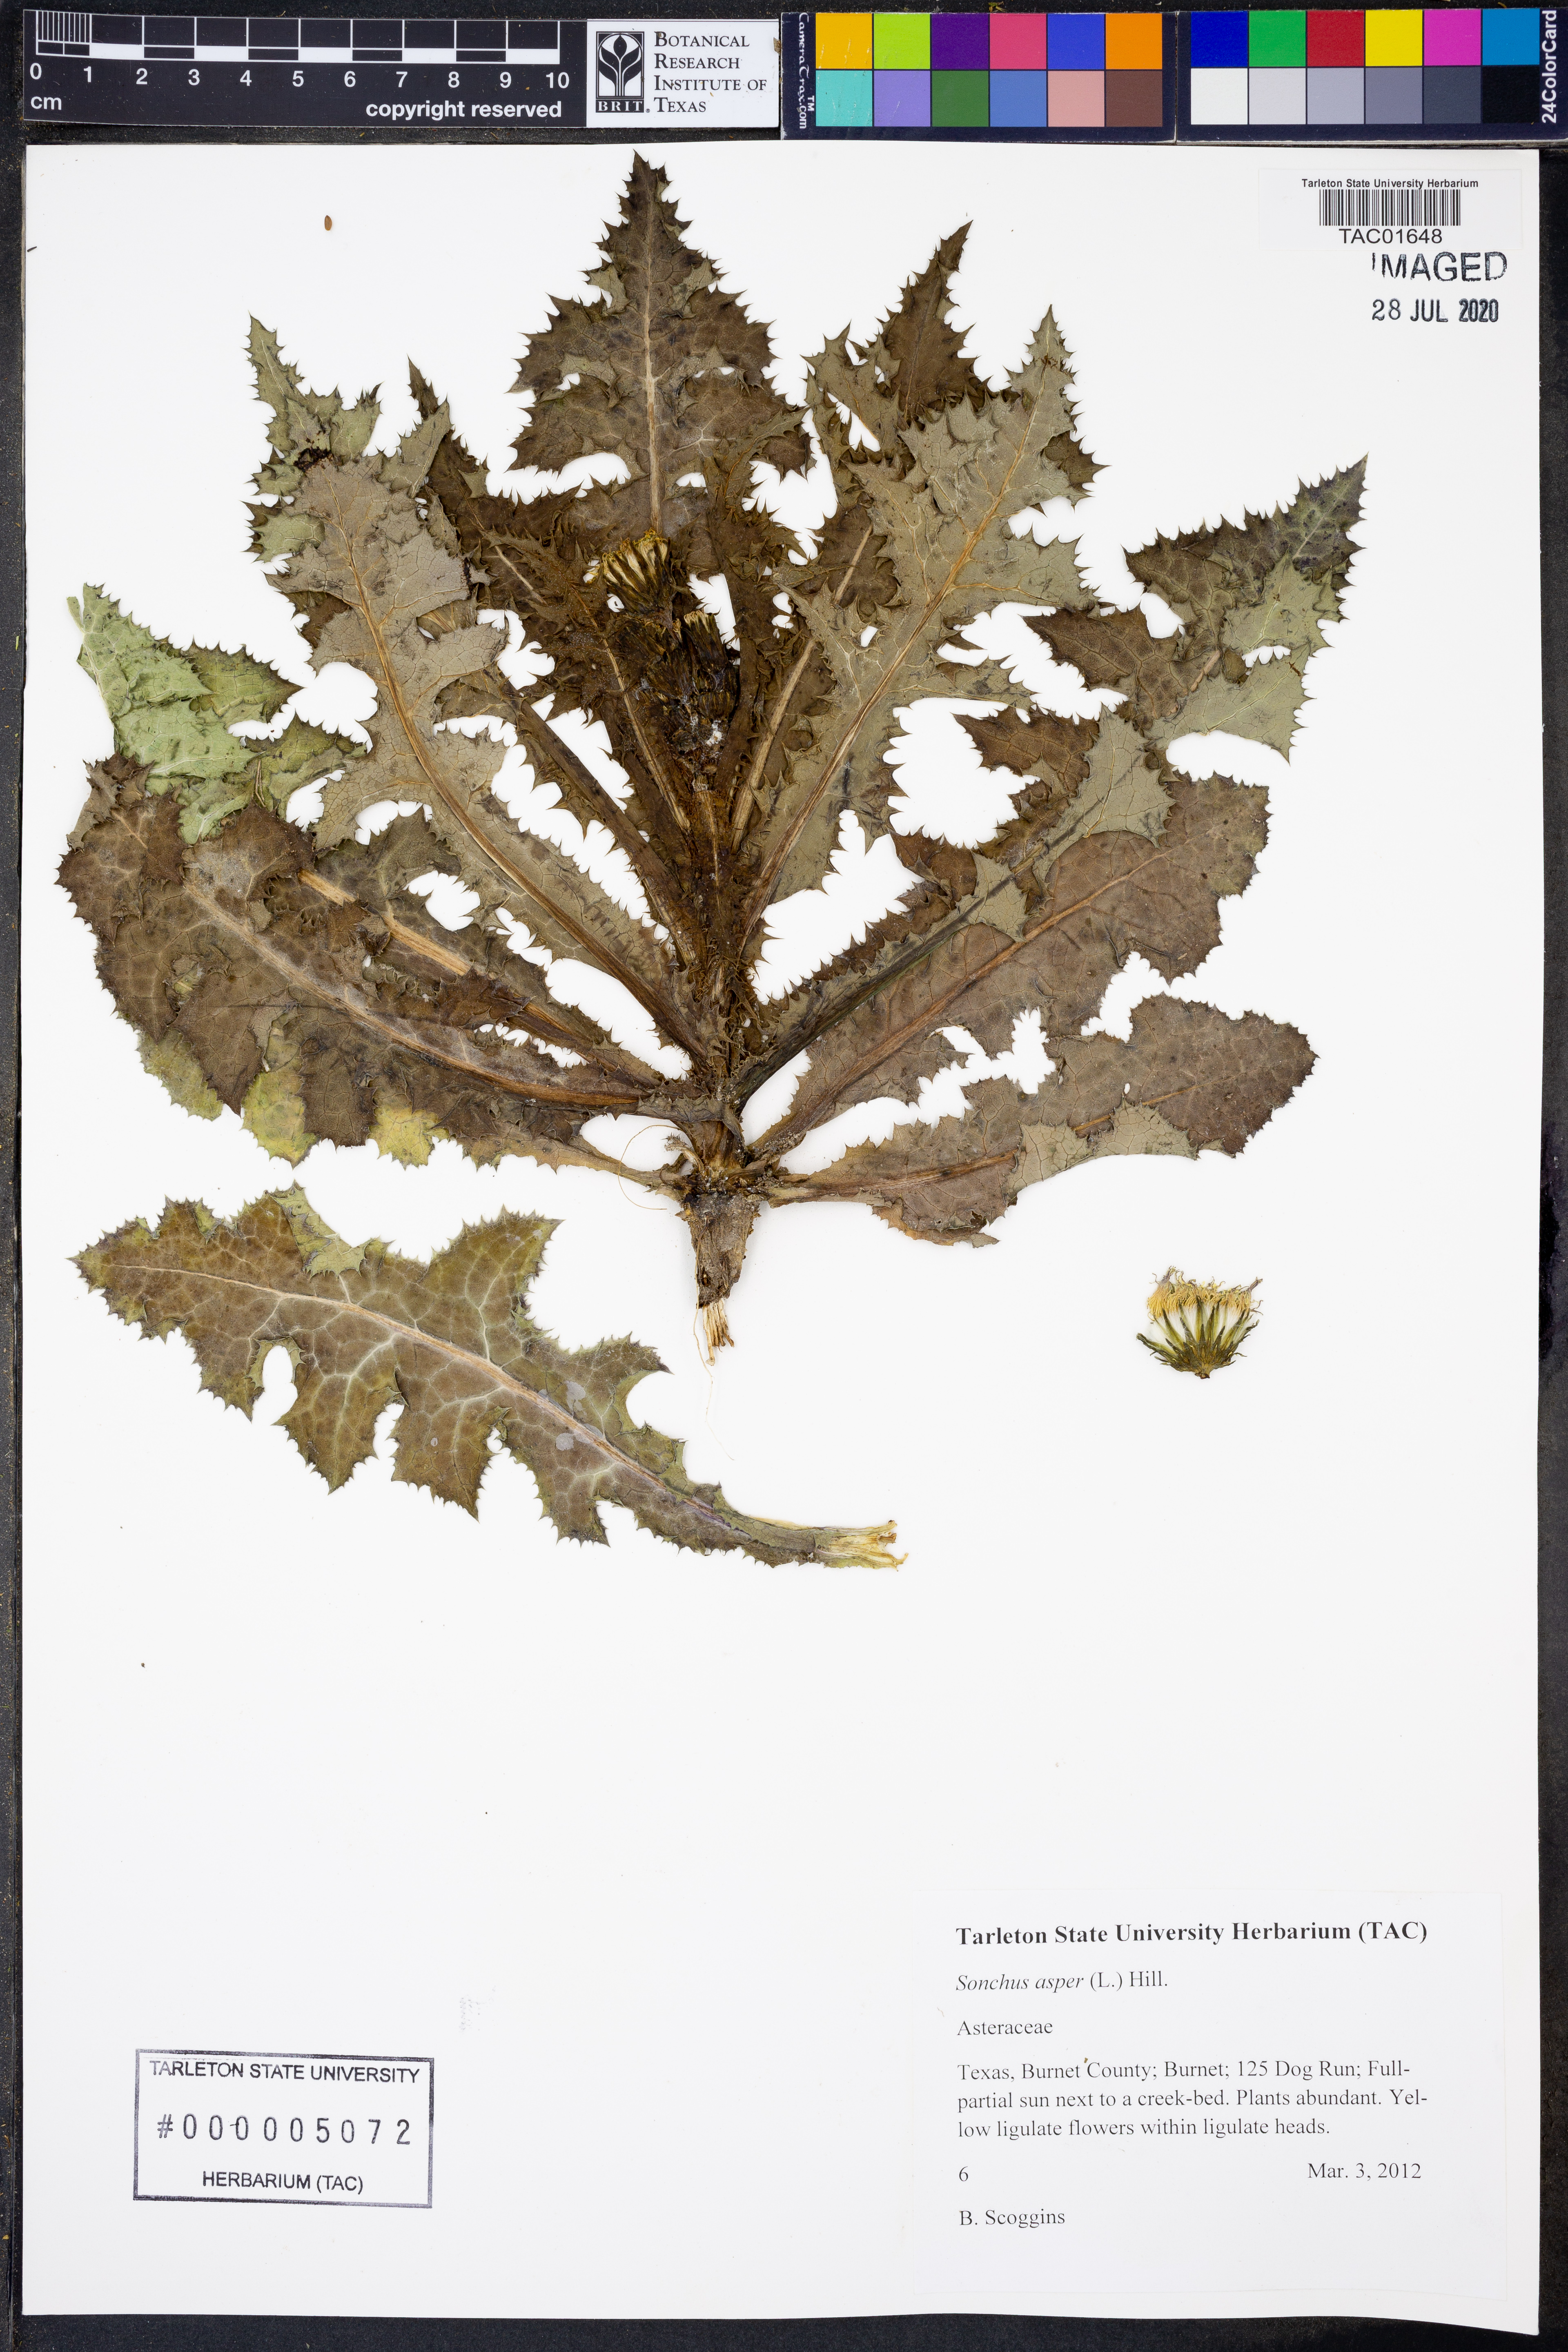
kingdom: Plantae
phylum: Tracheophyta
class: Magnoliopsida
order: Asterales
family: Asteraceae
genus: Sonchus
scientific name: Sonchus asper
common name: Prickly sow-thistle
